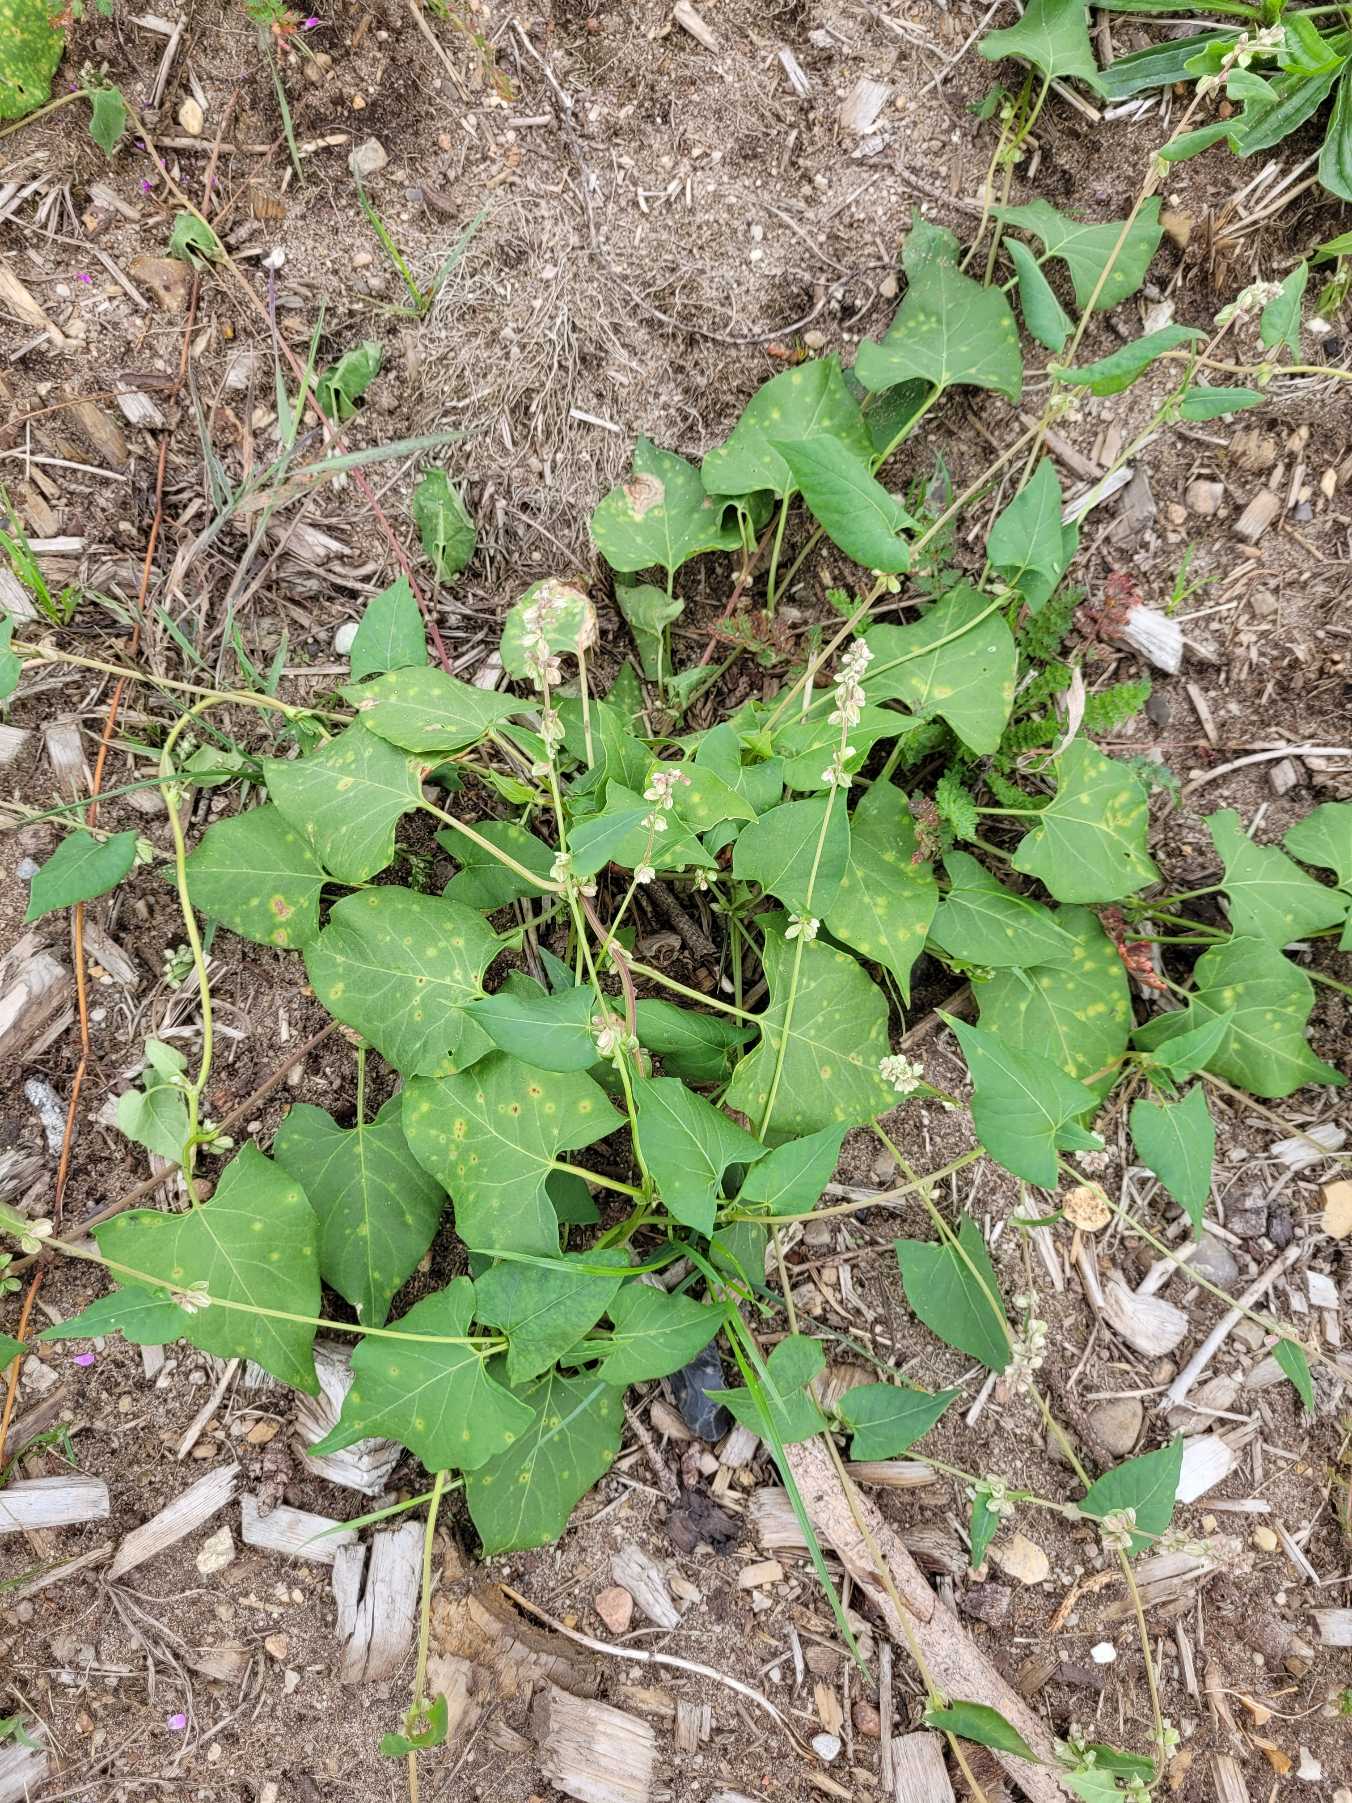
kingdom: Plantae
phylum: Tracheophyta
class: Magnoliopsida
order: Caryophyllales
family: Polygonaceae
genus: Fallopia
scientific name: Fallopia convolvulus
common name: Snerle-pileurt
